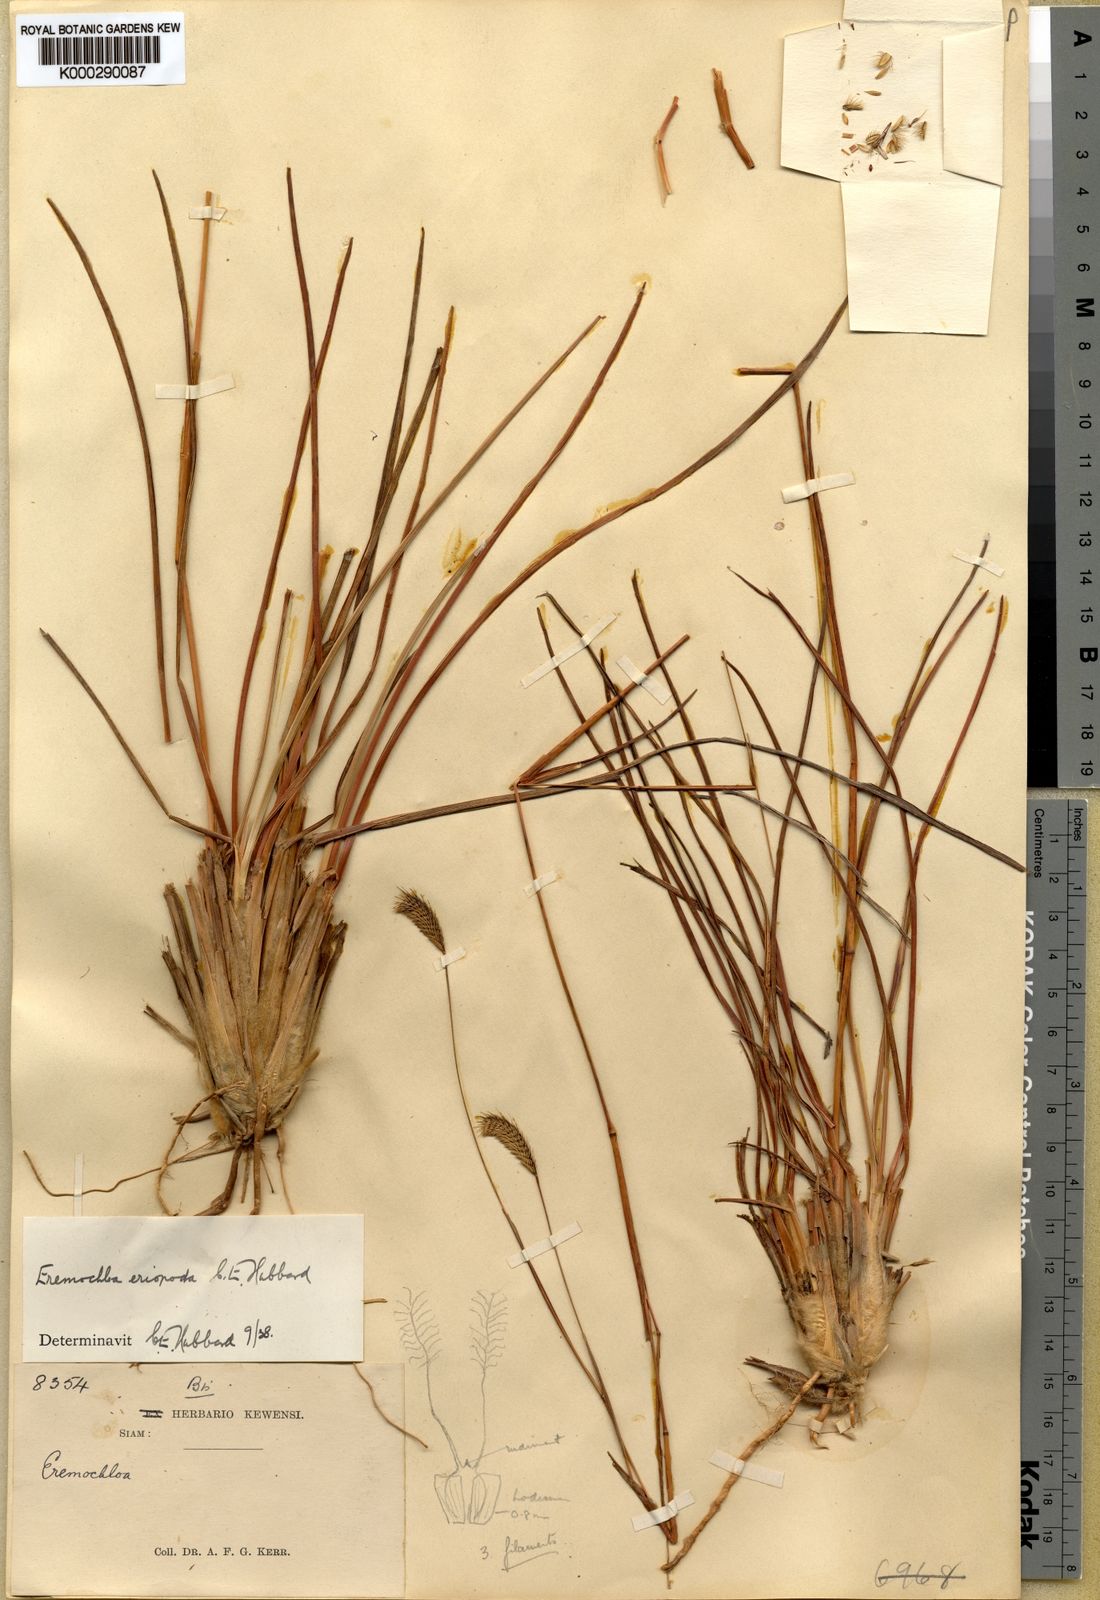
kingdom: Plantae
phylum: Tracheophyta
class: Liliopsida
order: Poales
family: Poaceae
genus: Eremochloa
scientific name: Eremochloa eriopoda
